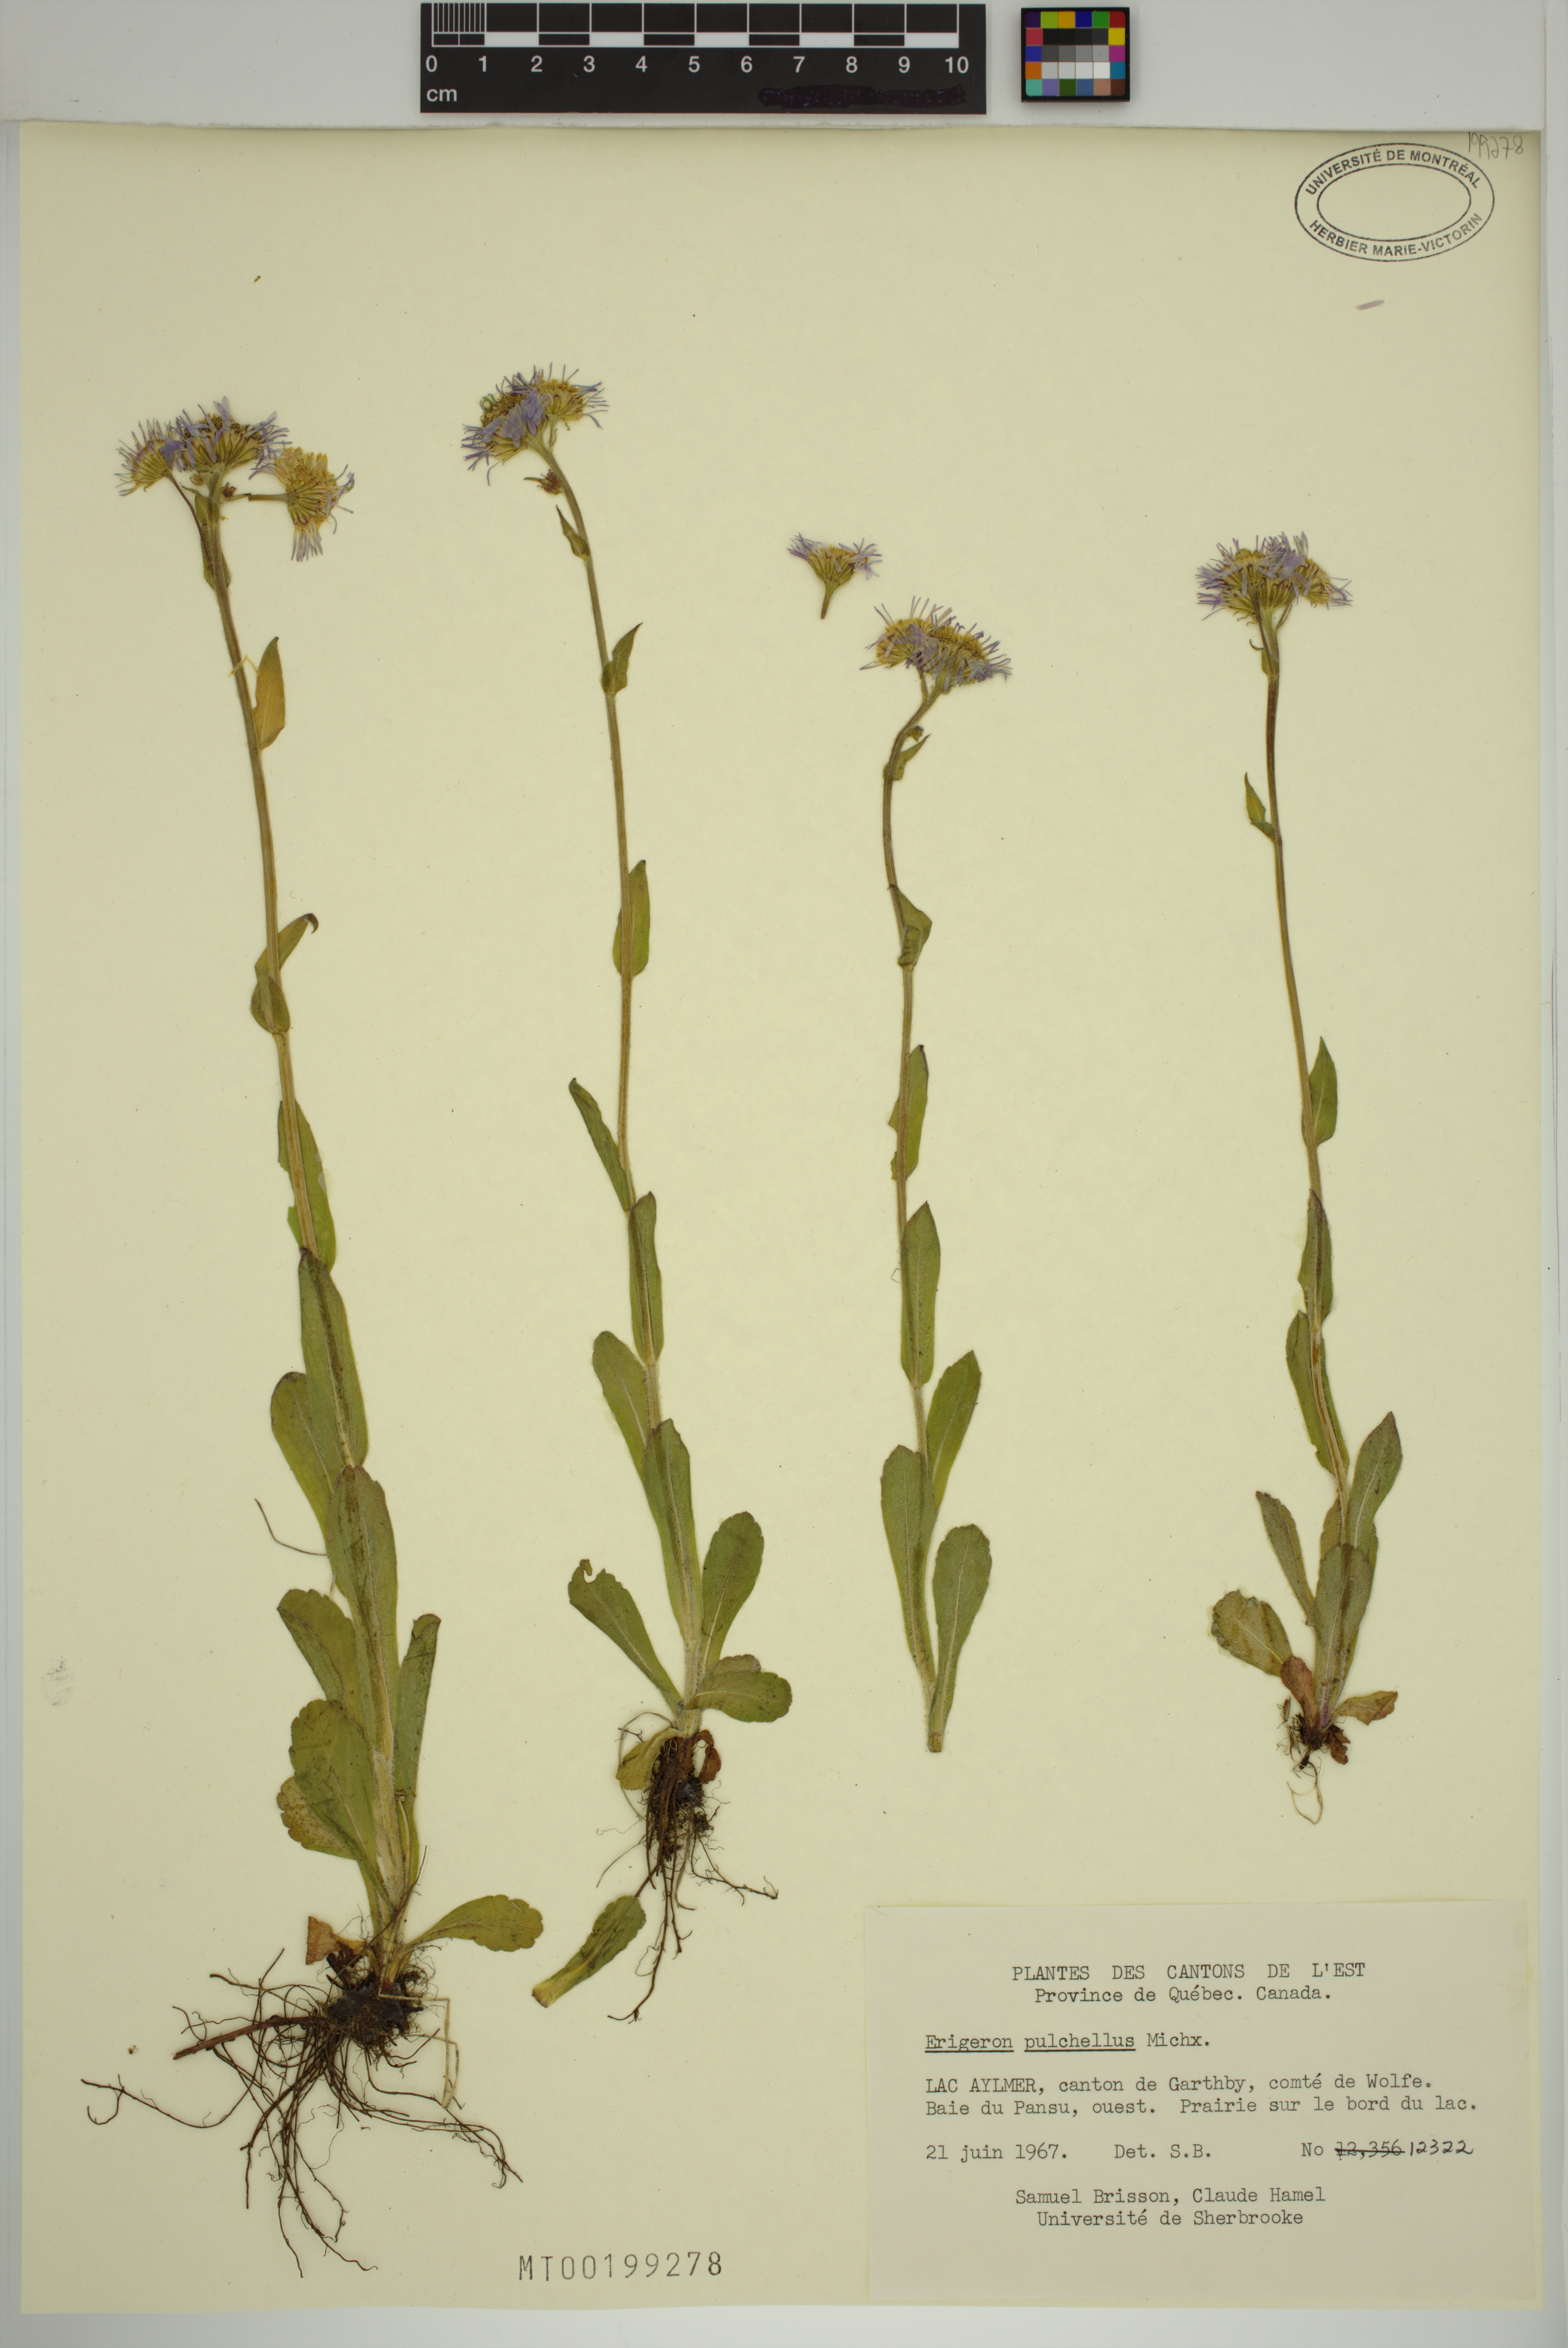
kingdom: Plantae
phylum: Tracheophyta
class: Magnoliopsida
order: Asterales
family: Asteraceae
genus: Erigeron
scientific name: Erigeron pulchellus
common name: Hairy fleabane
